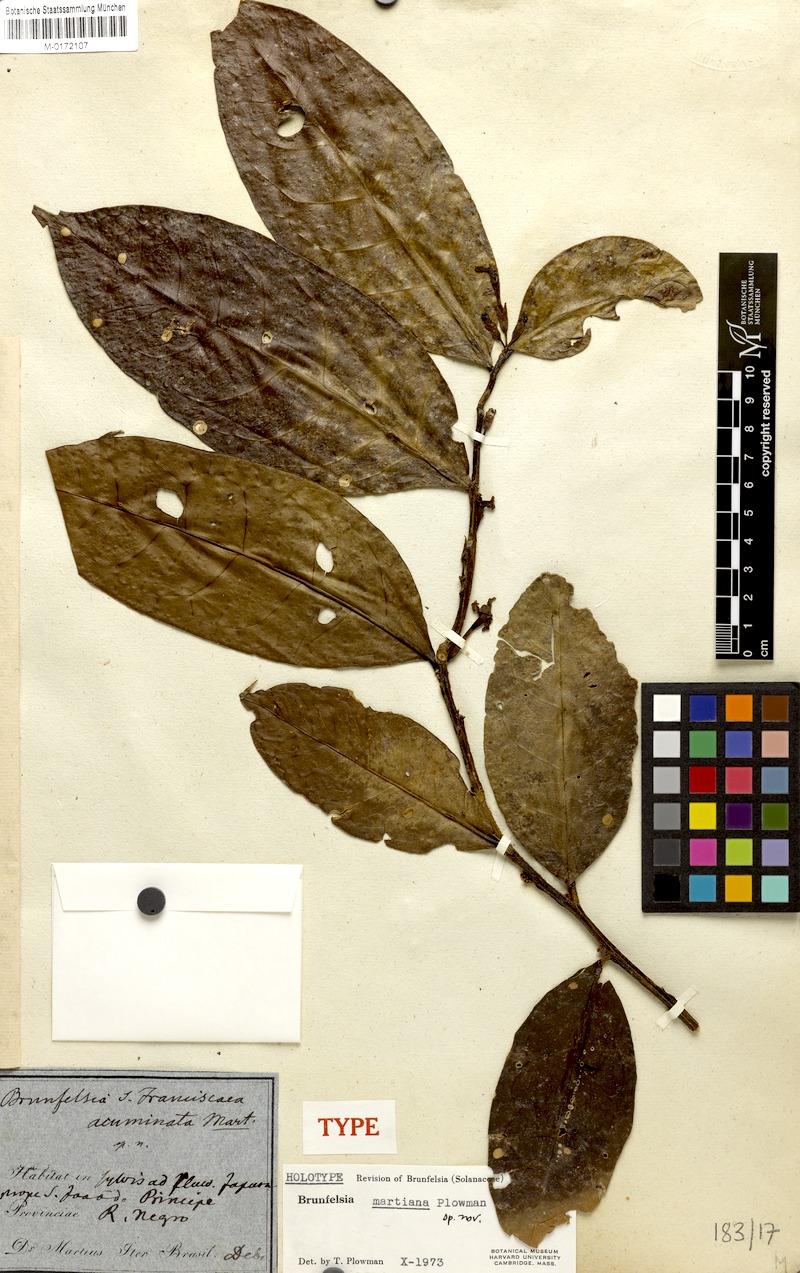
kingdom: Plantae
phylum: Tracheophyta
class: Magnoliopsida
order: Solanales
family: Solanaceae
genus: Brunfelsia
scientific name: Brunfelsia martiana
